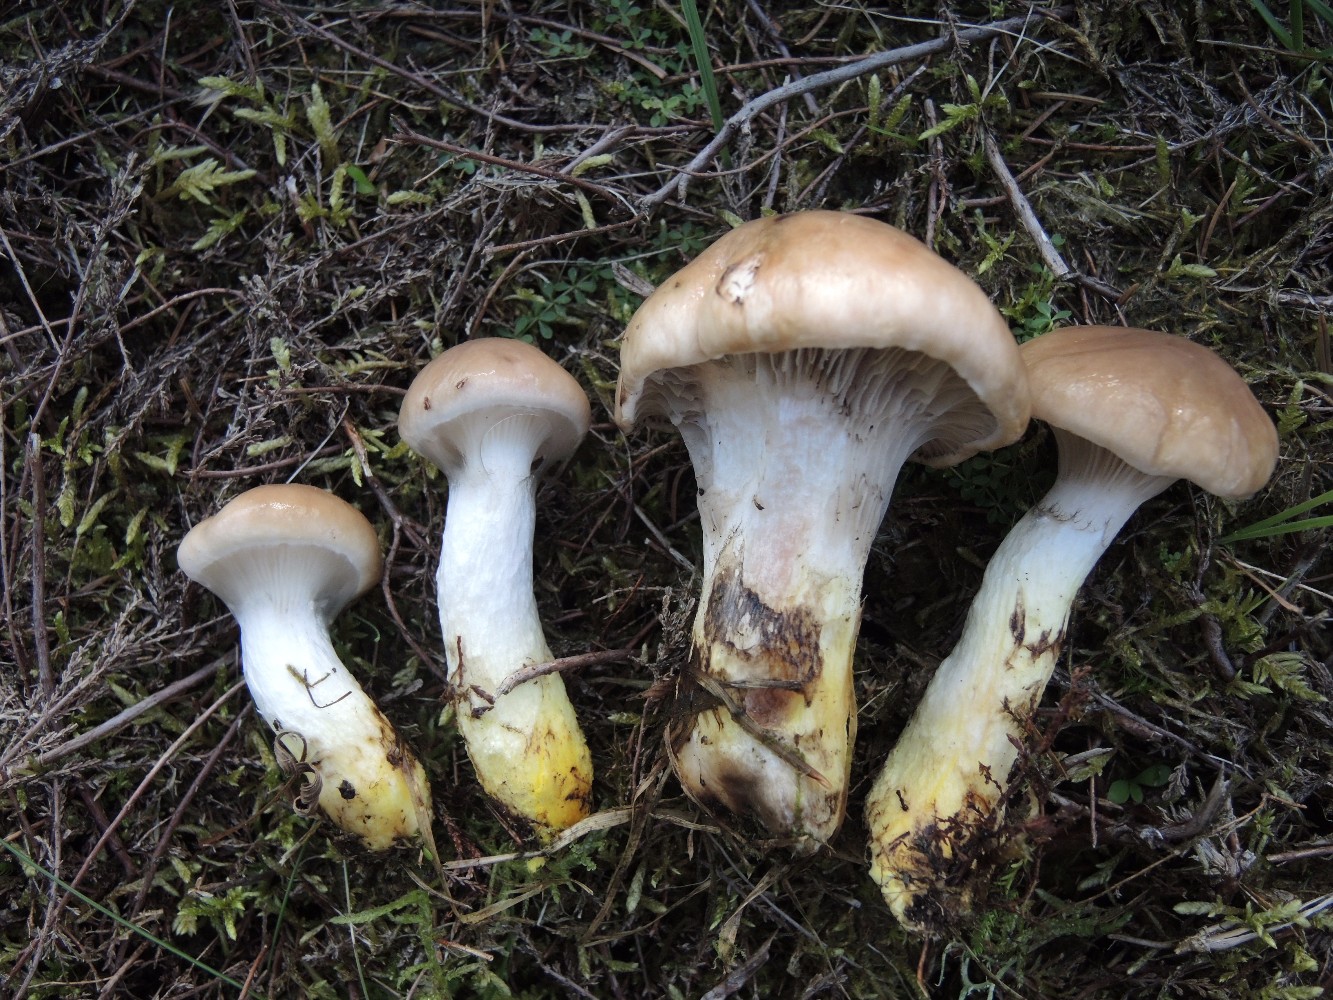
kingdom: Fungi
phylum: Basidiomycota
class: Agaricomycetes
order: Boletales
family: Gomphidiaceae
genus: Gomphidius
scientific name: Gomphidius glutinosus
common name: grå slimslør
